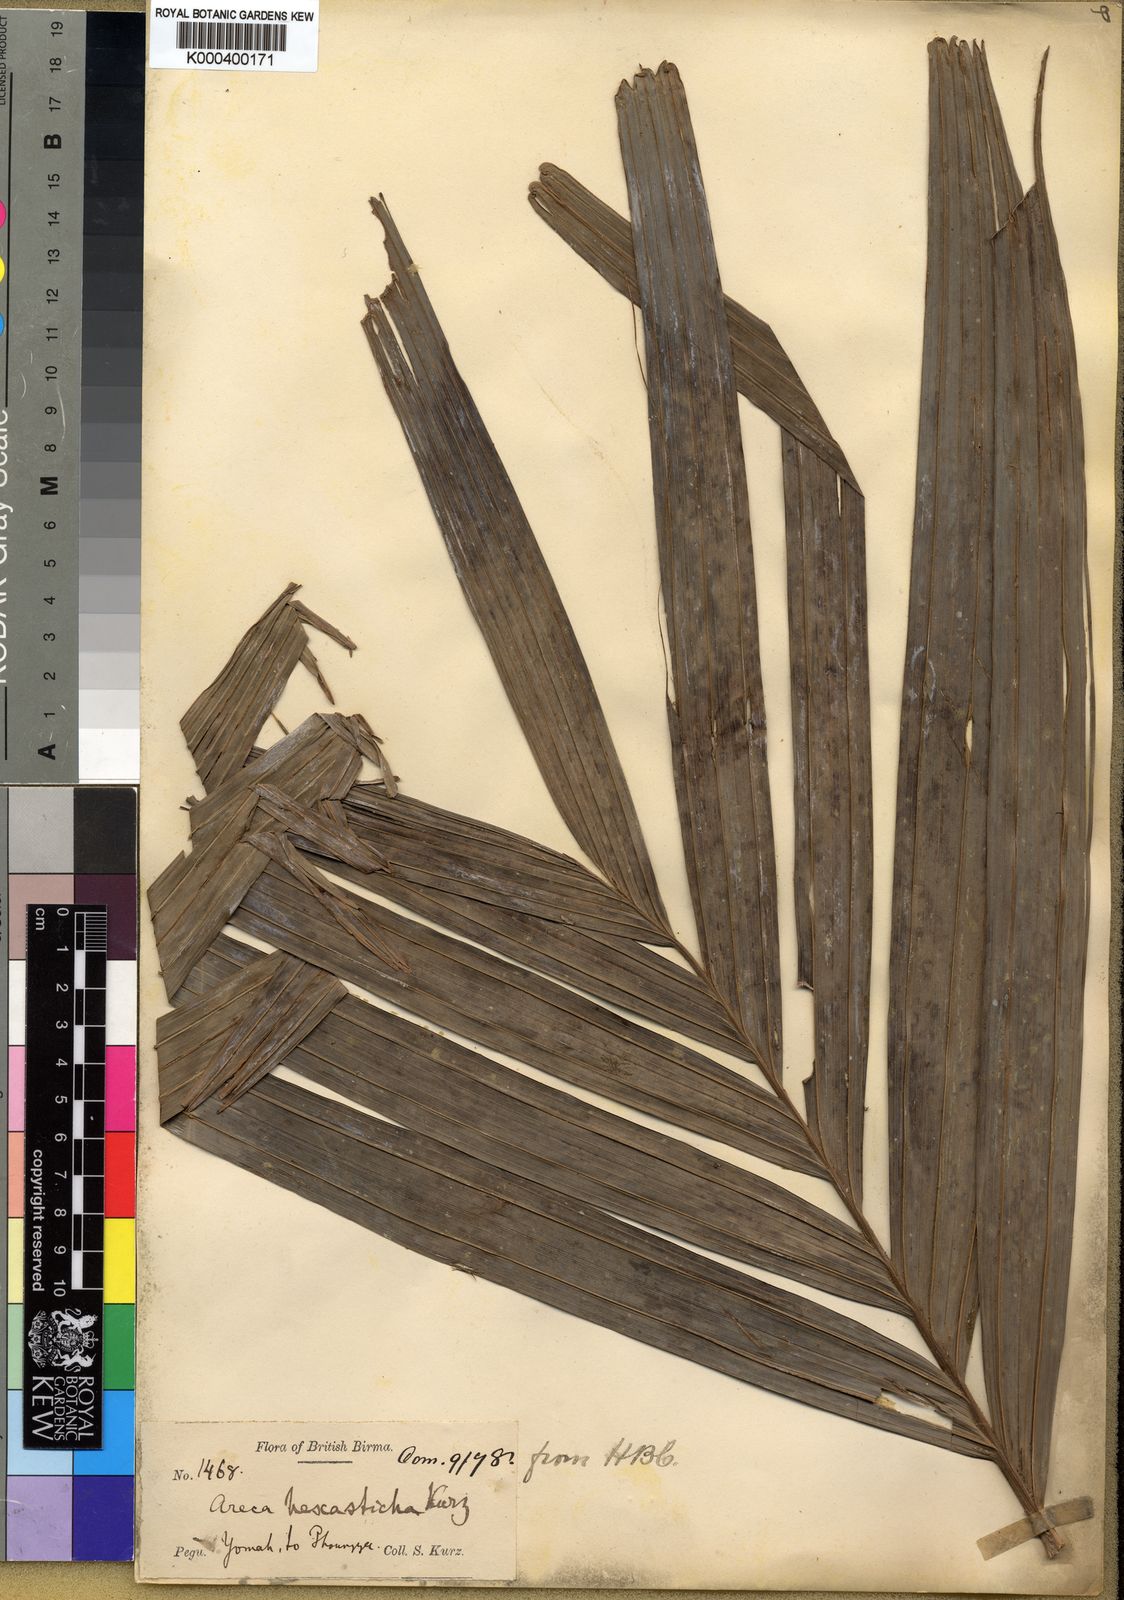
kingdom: Plantae
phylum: Tracheophyta
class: Liliopsida
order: Arecales
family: Arecaceae
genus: Pinanga
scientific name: Pinanga hexasticha
